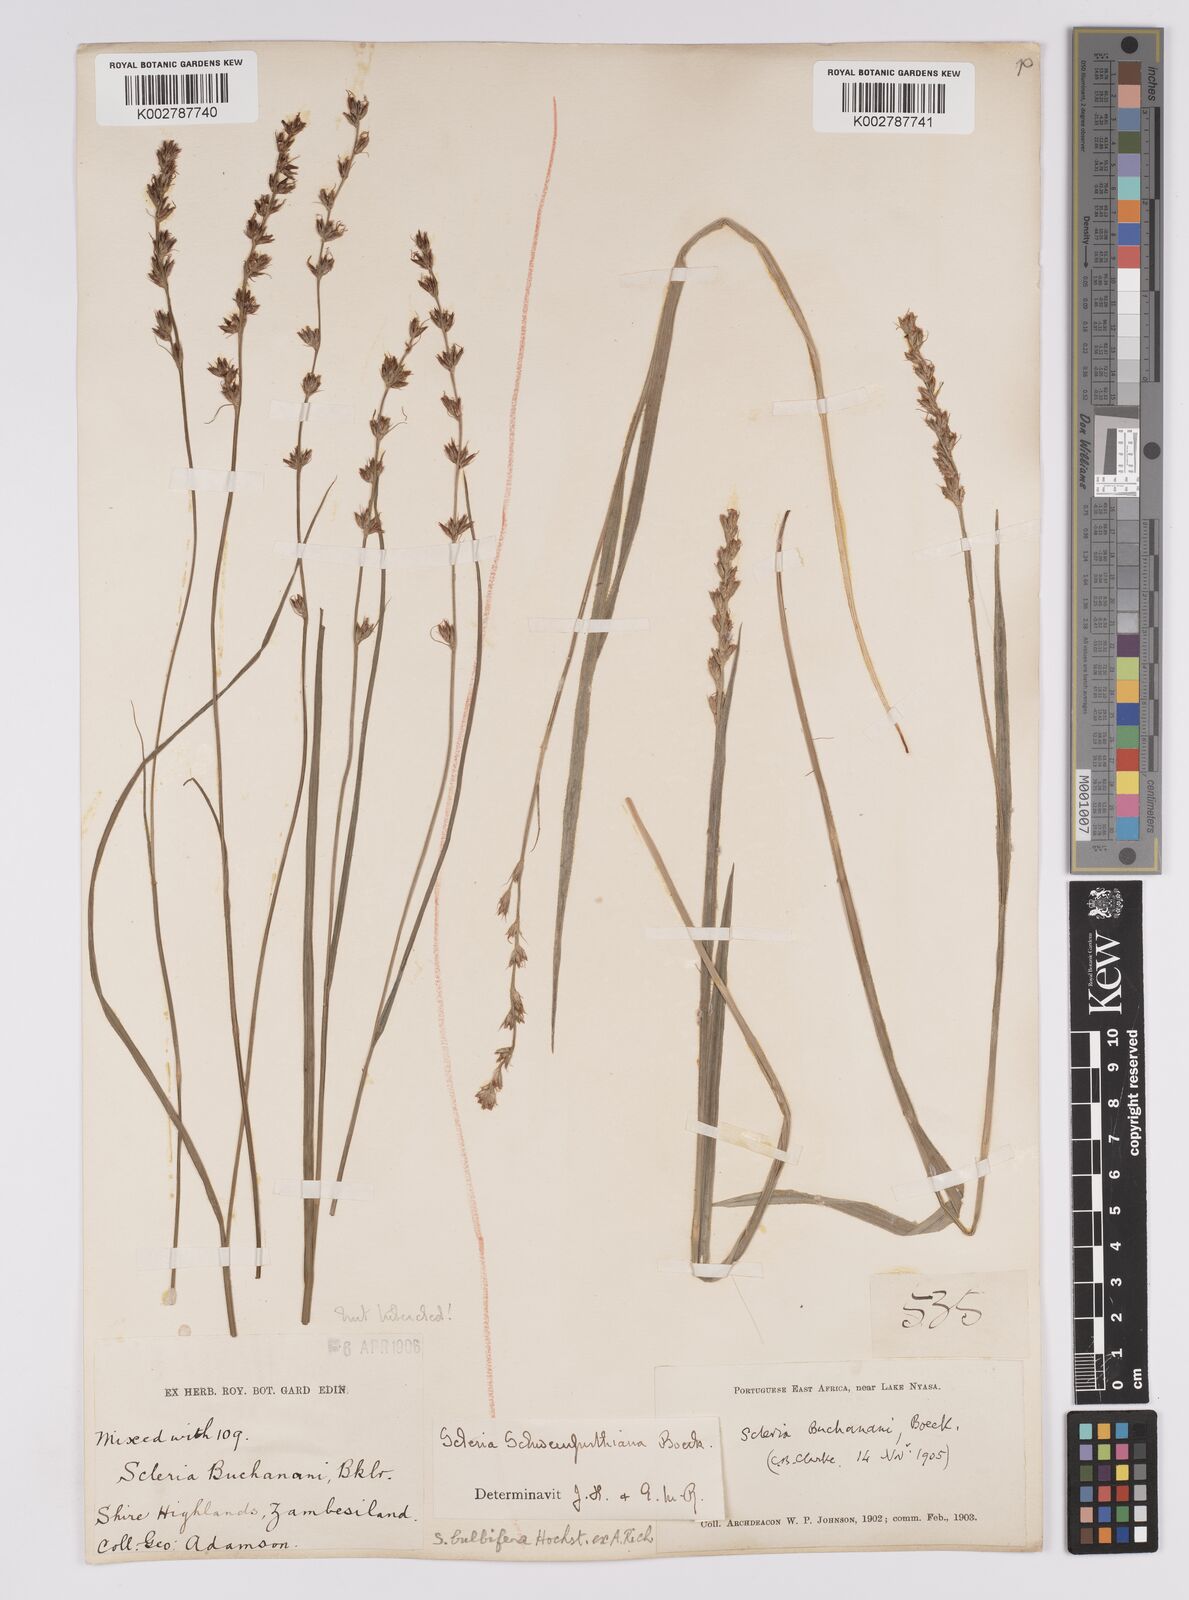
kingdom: Plantae
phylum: Tracheophyta
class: Liliopsida
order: Poales
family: Cyperaceae
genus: Scleria
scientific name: Scleria bulbifera
